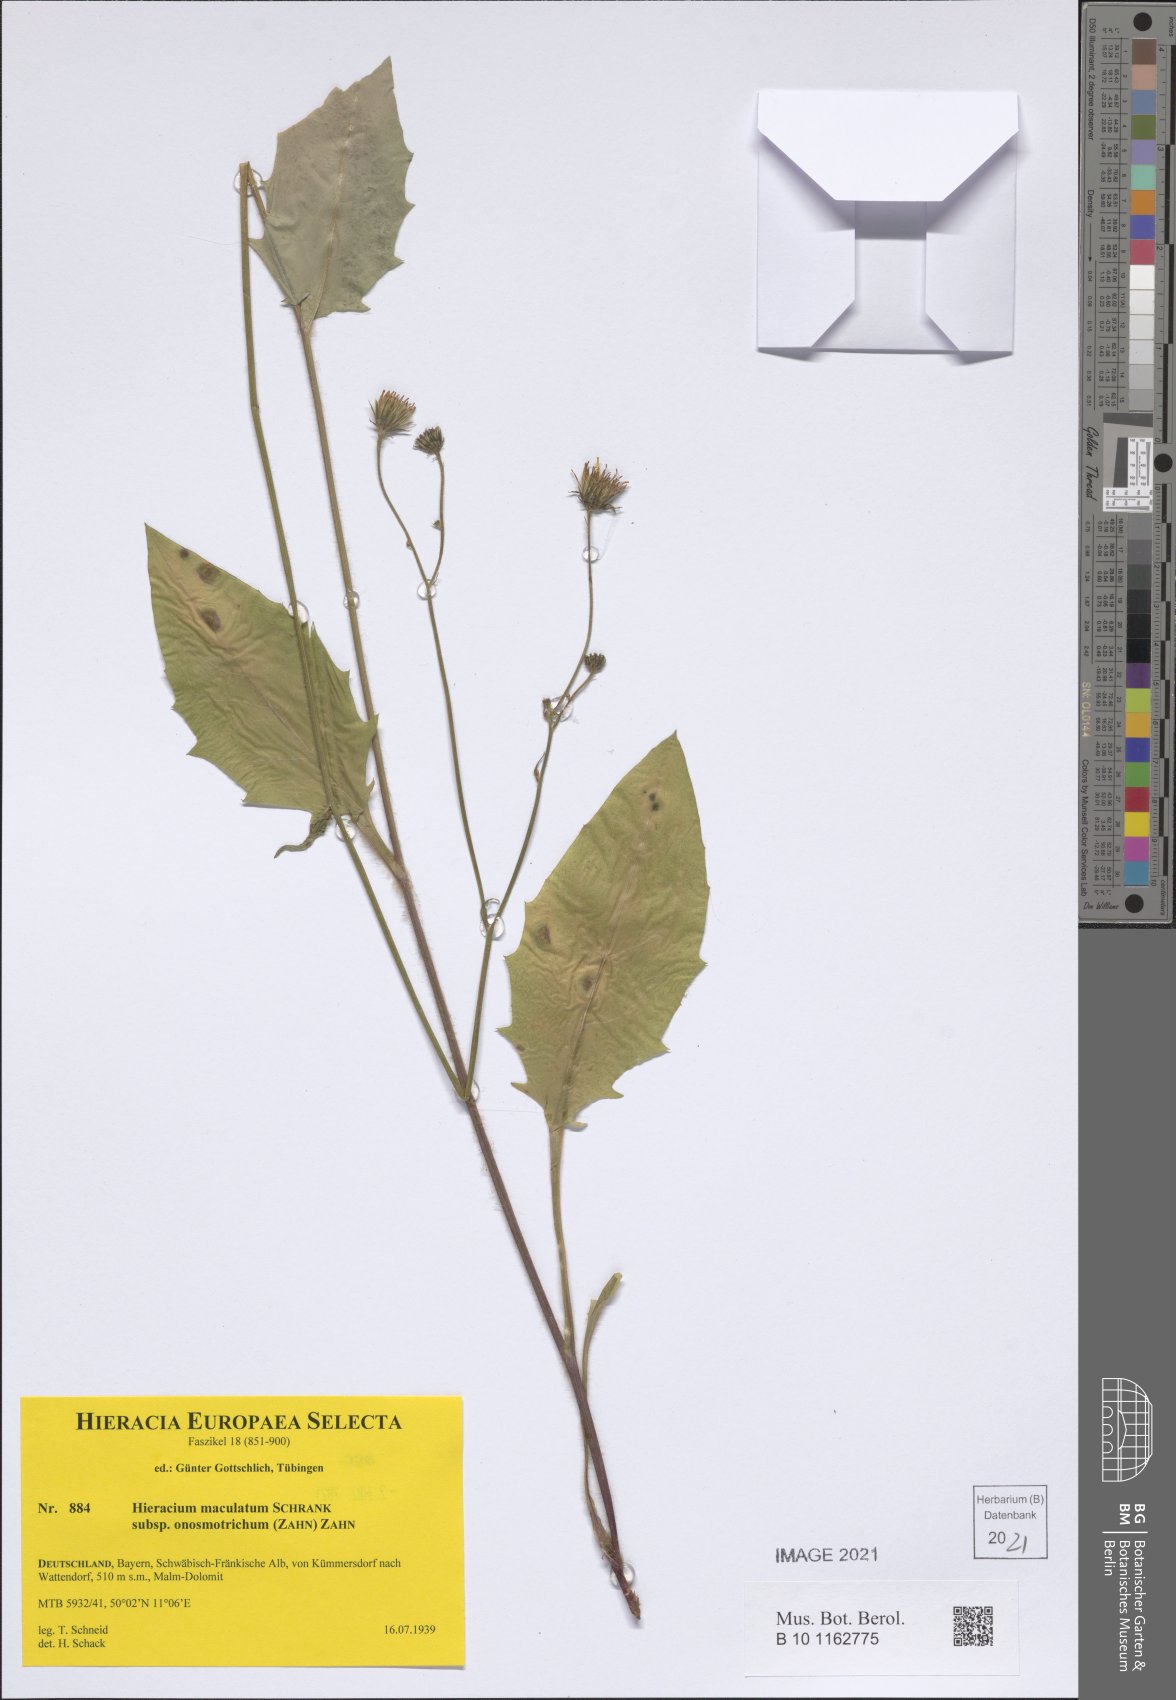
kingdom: Plantae
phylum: Tracheophyta
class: Magnoliopsida
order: Asterales
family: Asteraceae
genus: Hieracium
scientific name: Hieracium maculatum
